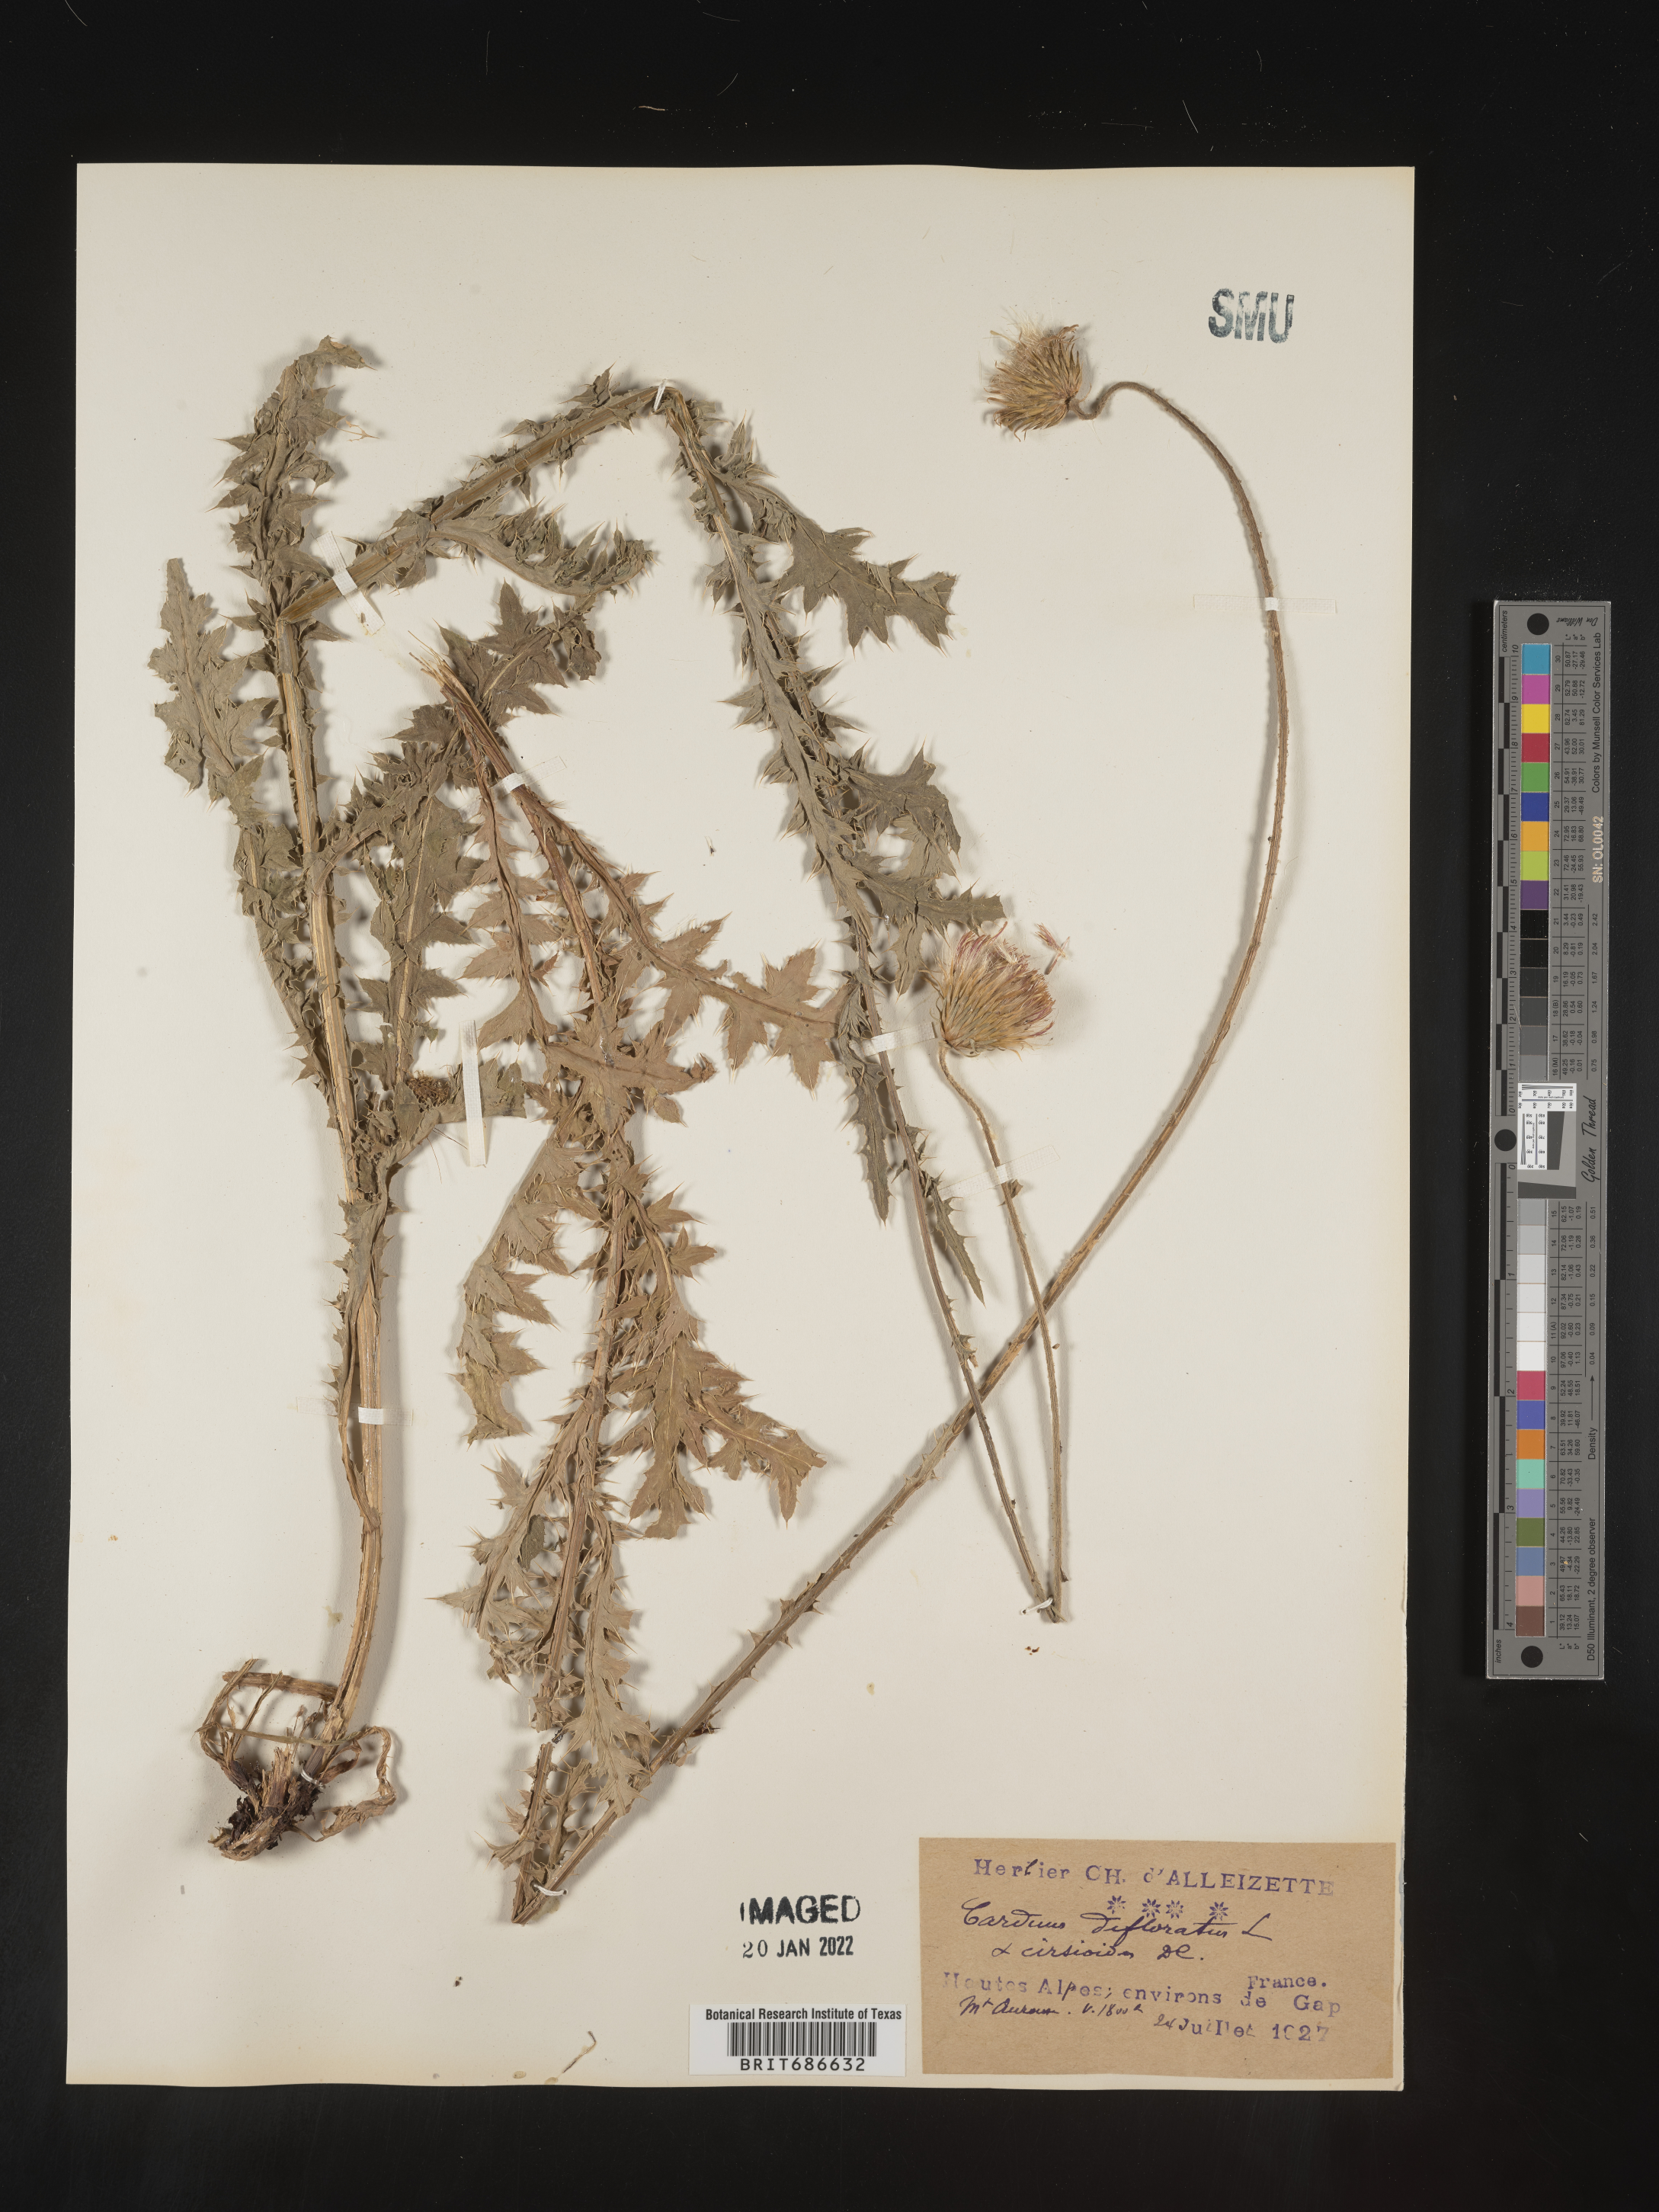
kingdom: Plantae
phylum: Tracheophyta
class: Magnoliopsida
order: Asterales
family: Asteraceae
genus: Carduus
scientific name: Carduus
